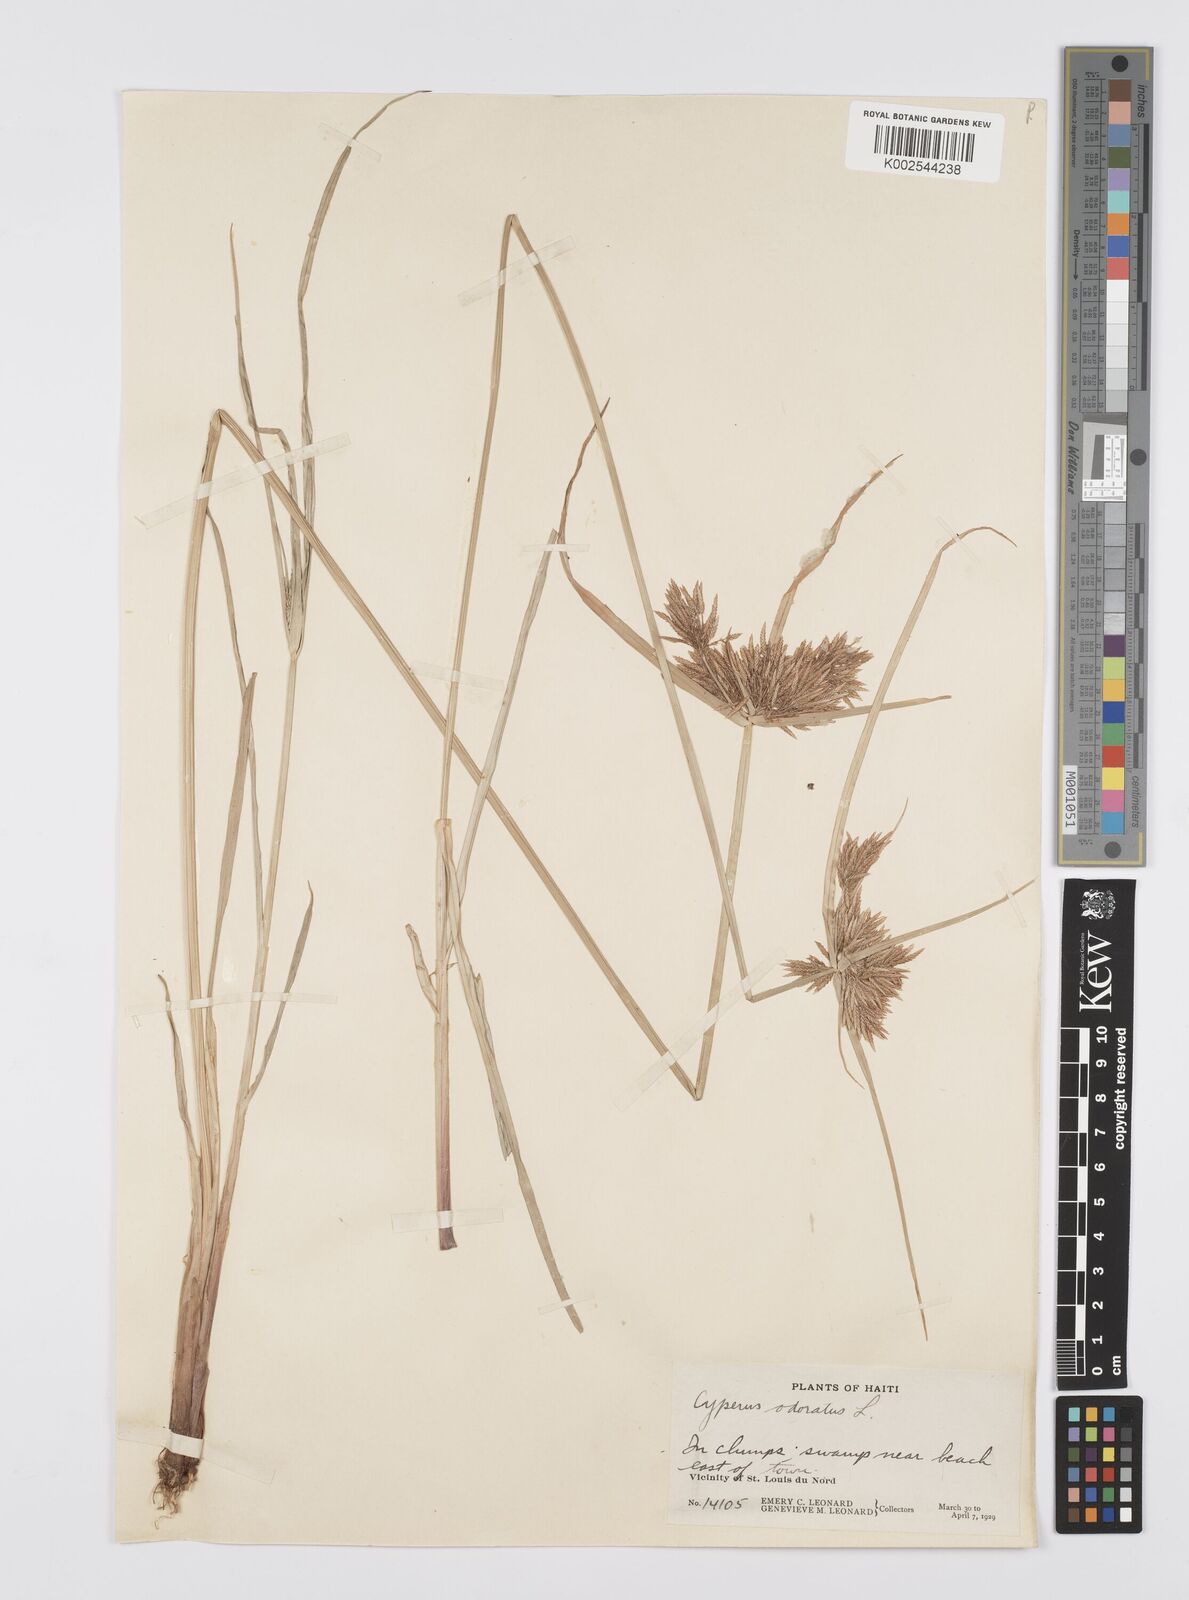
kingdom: Plantae
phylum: Tracheophyta
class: Liliopsida
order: Poales
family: Cyperaceae
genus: Cyperus
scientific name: Cyperus polystachyos
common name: Bunchy flat sedge
